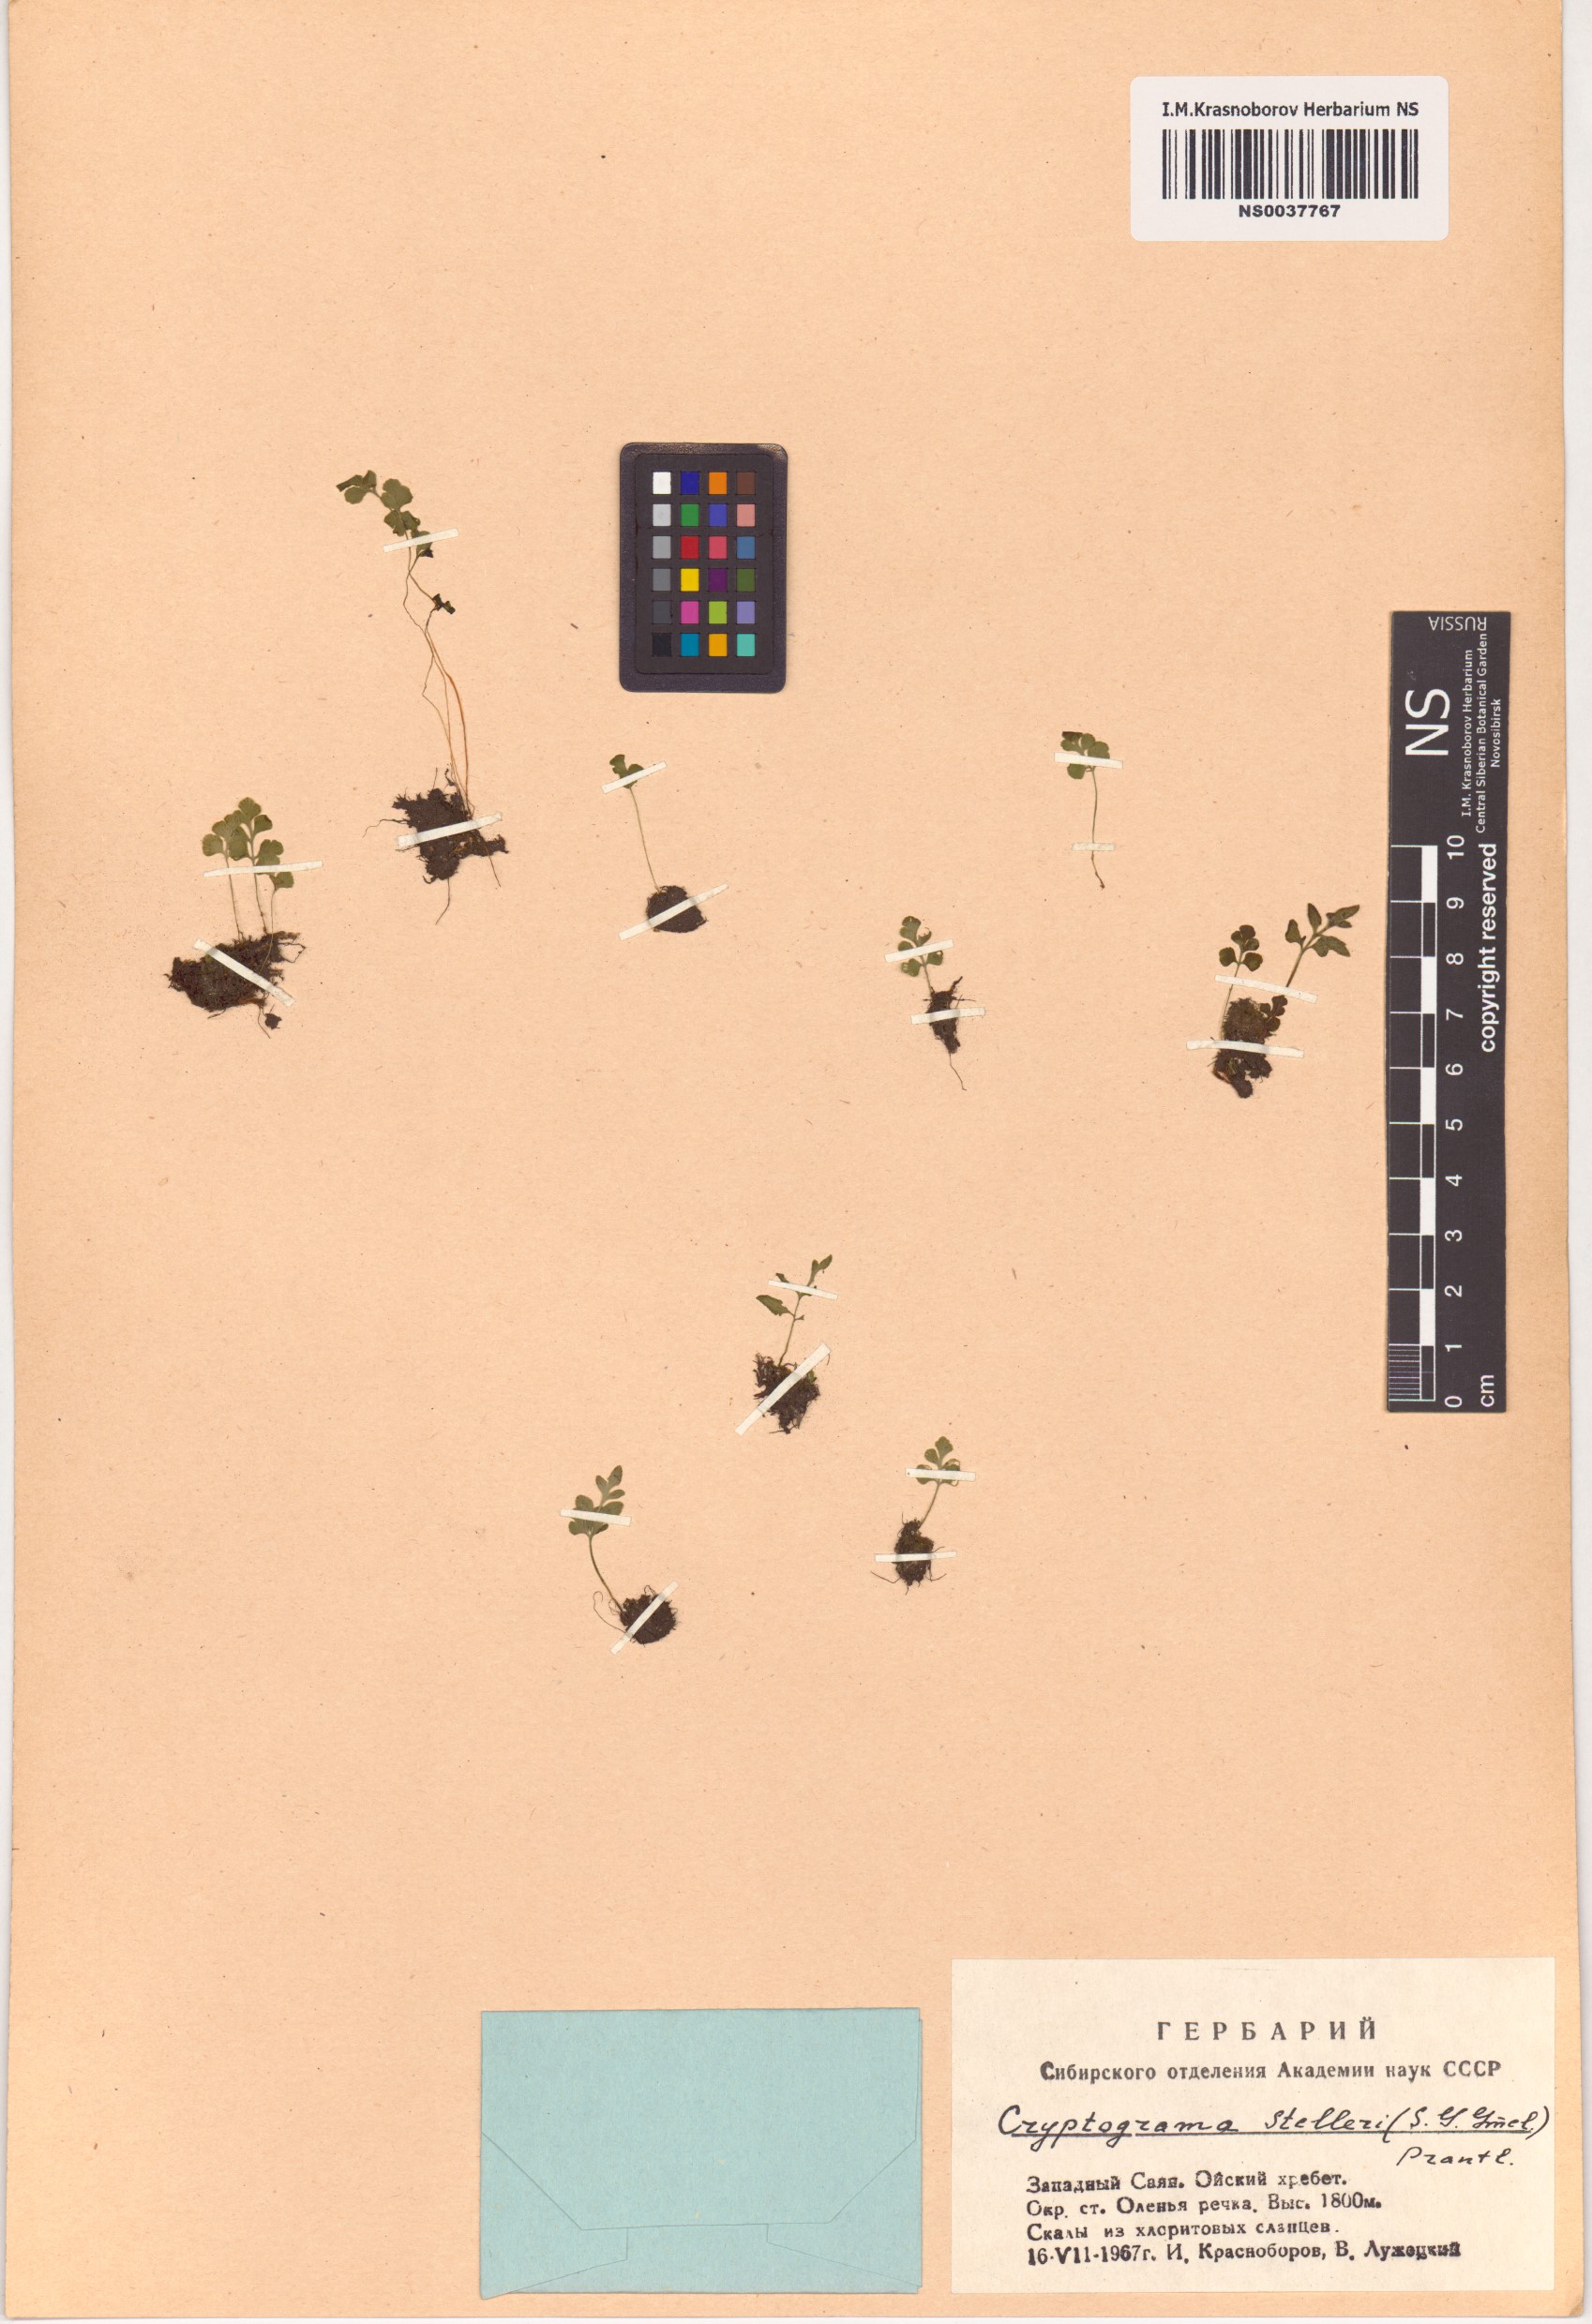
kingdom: Plantae
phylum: Tracheophyta
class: Polypodiopsida
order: Polypodiales
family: Pteridaceae
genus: Cryptogramma
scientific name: Cryptogramma stelleri
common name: Cliff-brake
